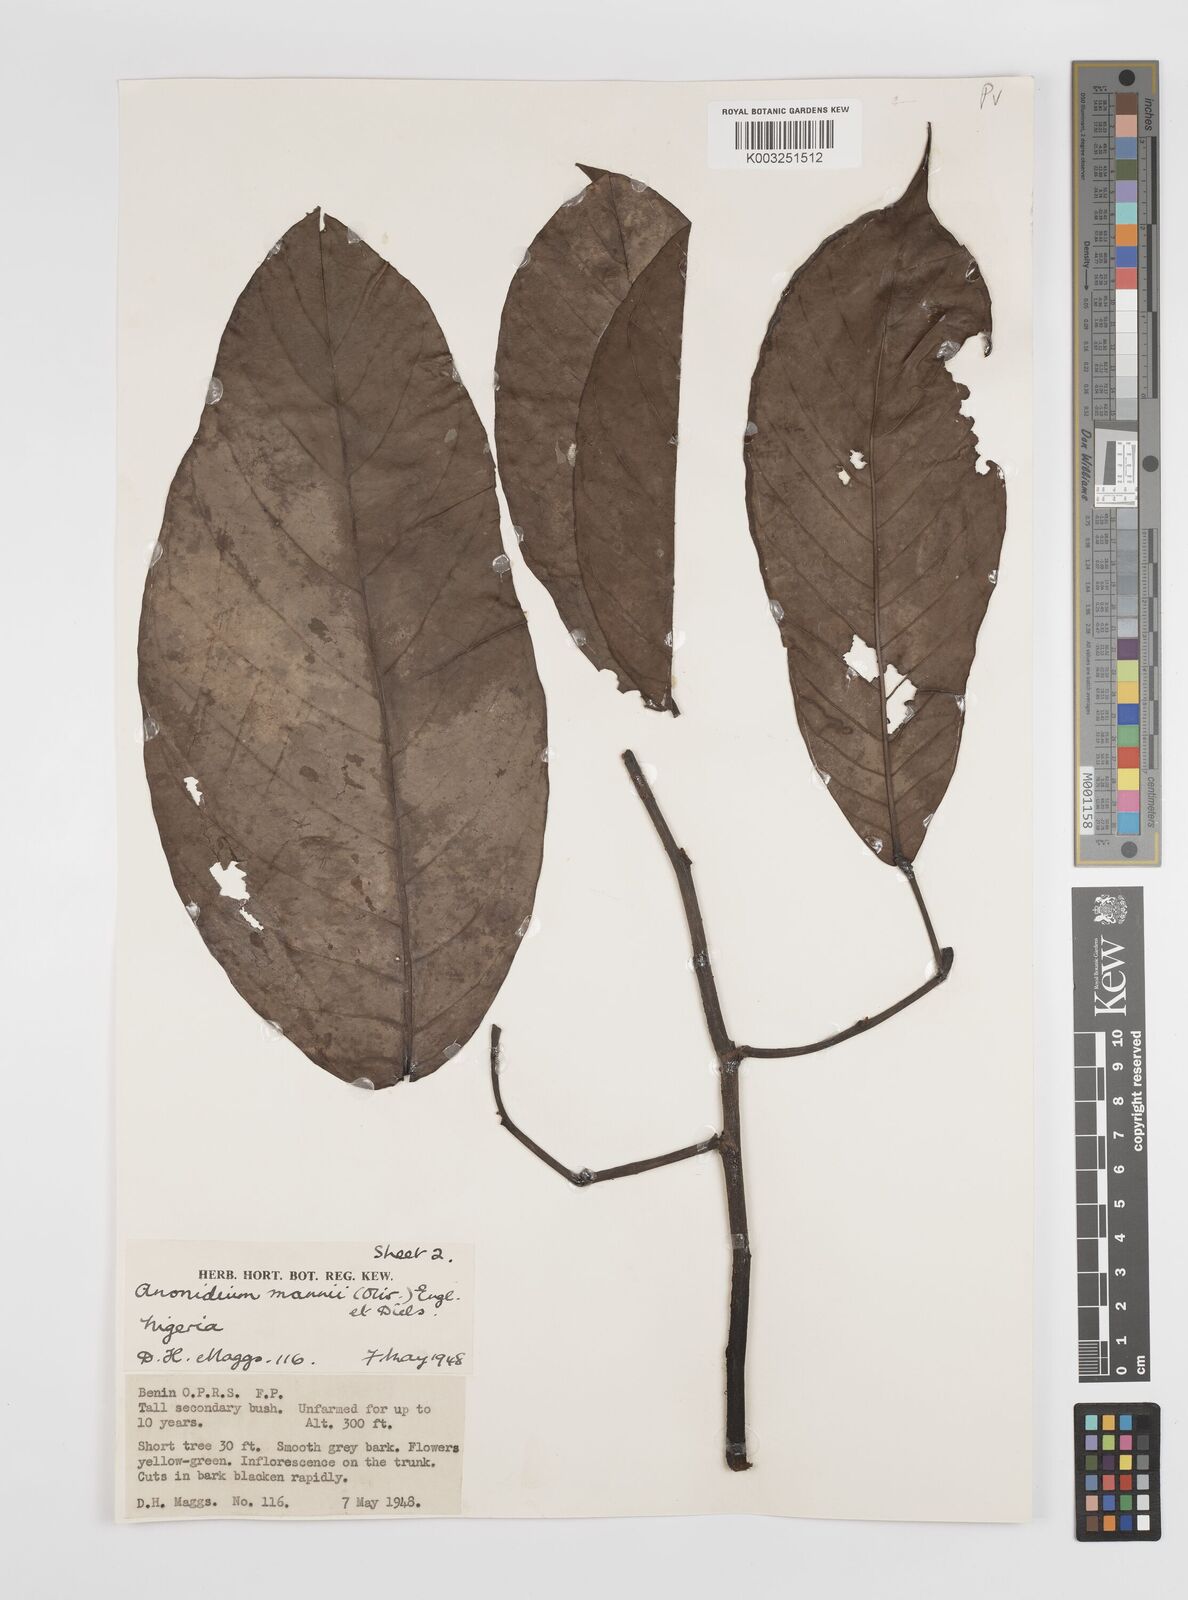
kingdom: Plantae
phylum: Tracheophyta
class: Magnoliopsida
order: Magnoliales
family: Annonaceae
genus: Anonidium
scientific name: Anonidium mannii
